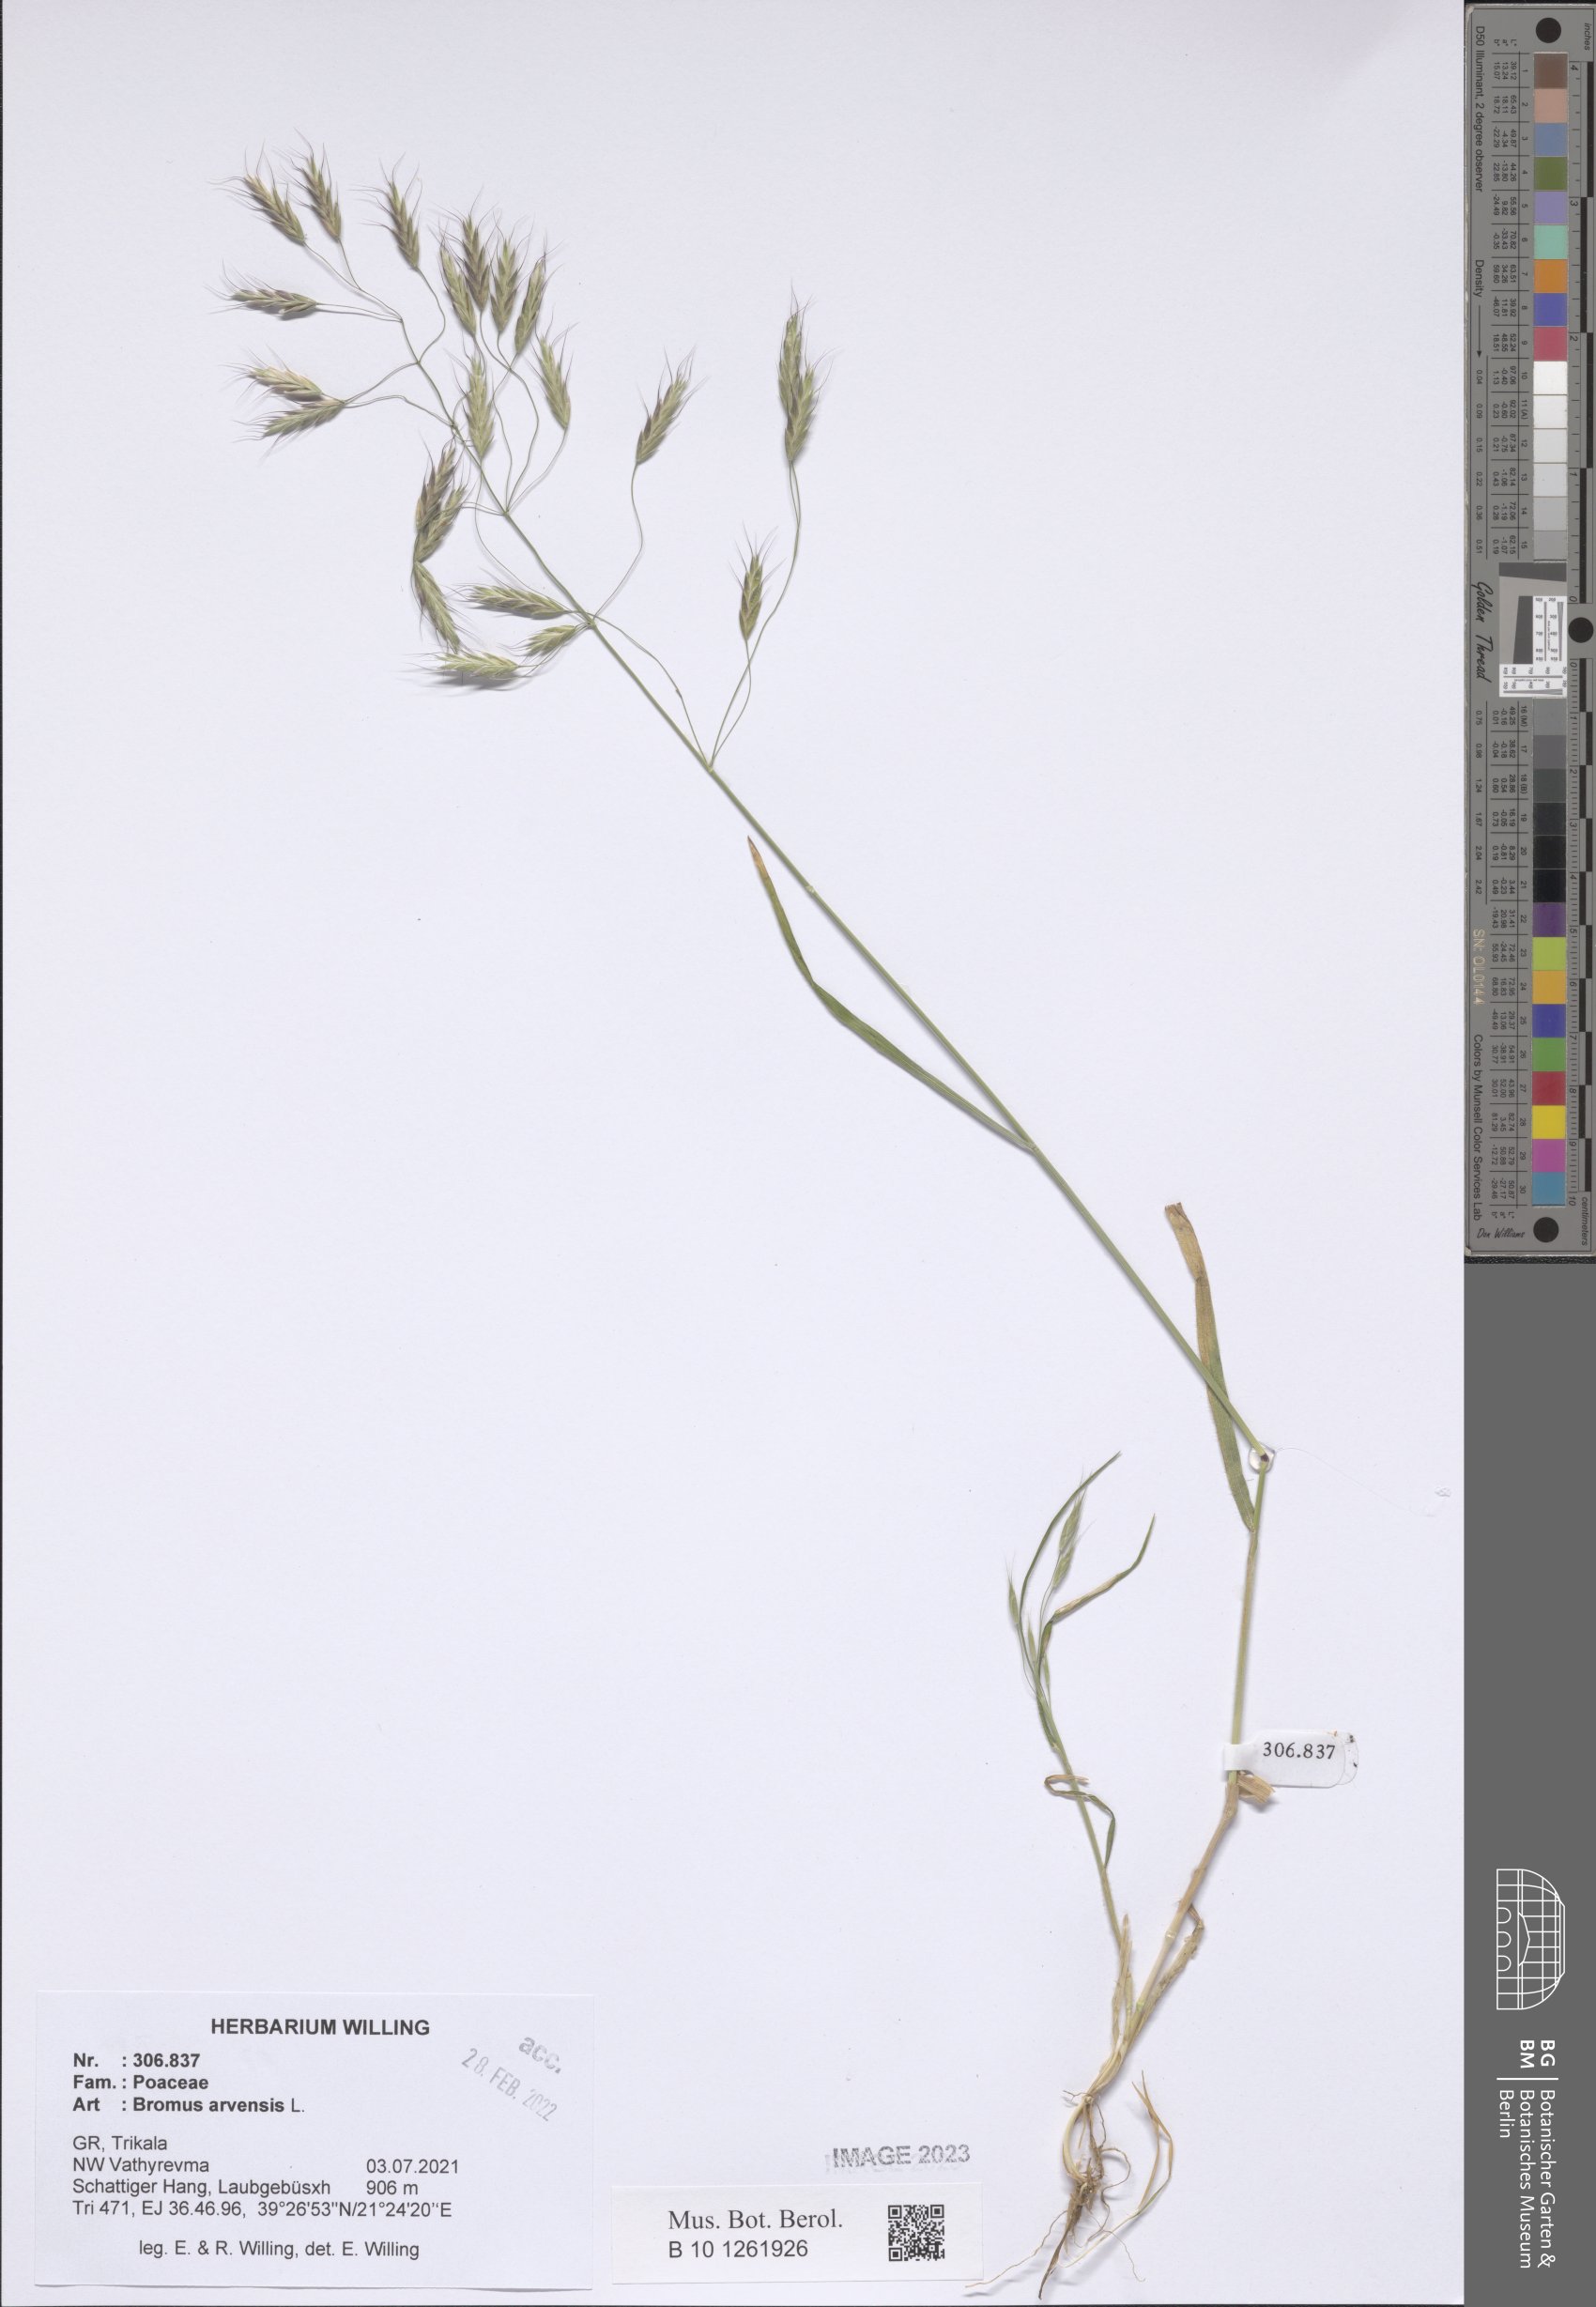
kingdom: Plantae
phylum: Tracheophyta
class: Liliopsida
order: Poales
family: Poaceae
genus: Bromus
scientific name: Bromus arvensis
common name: Field brome
